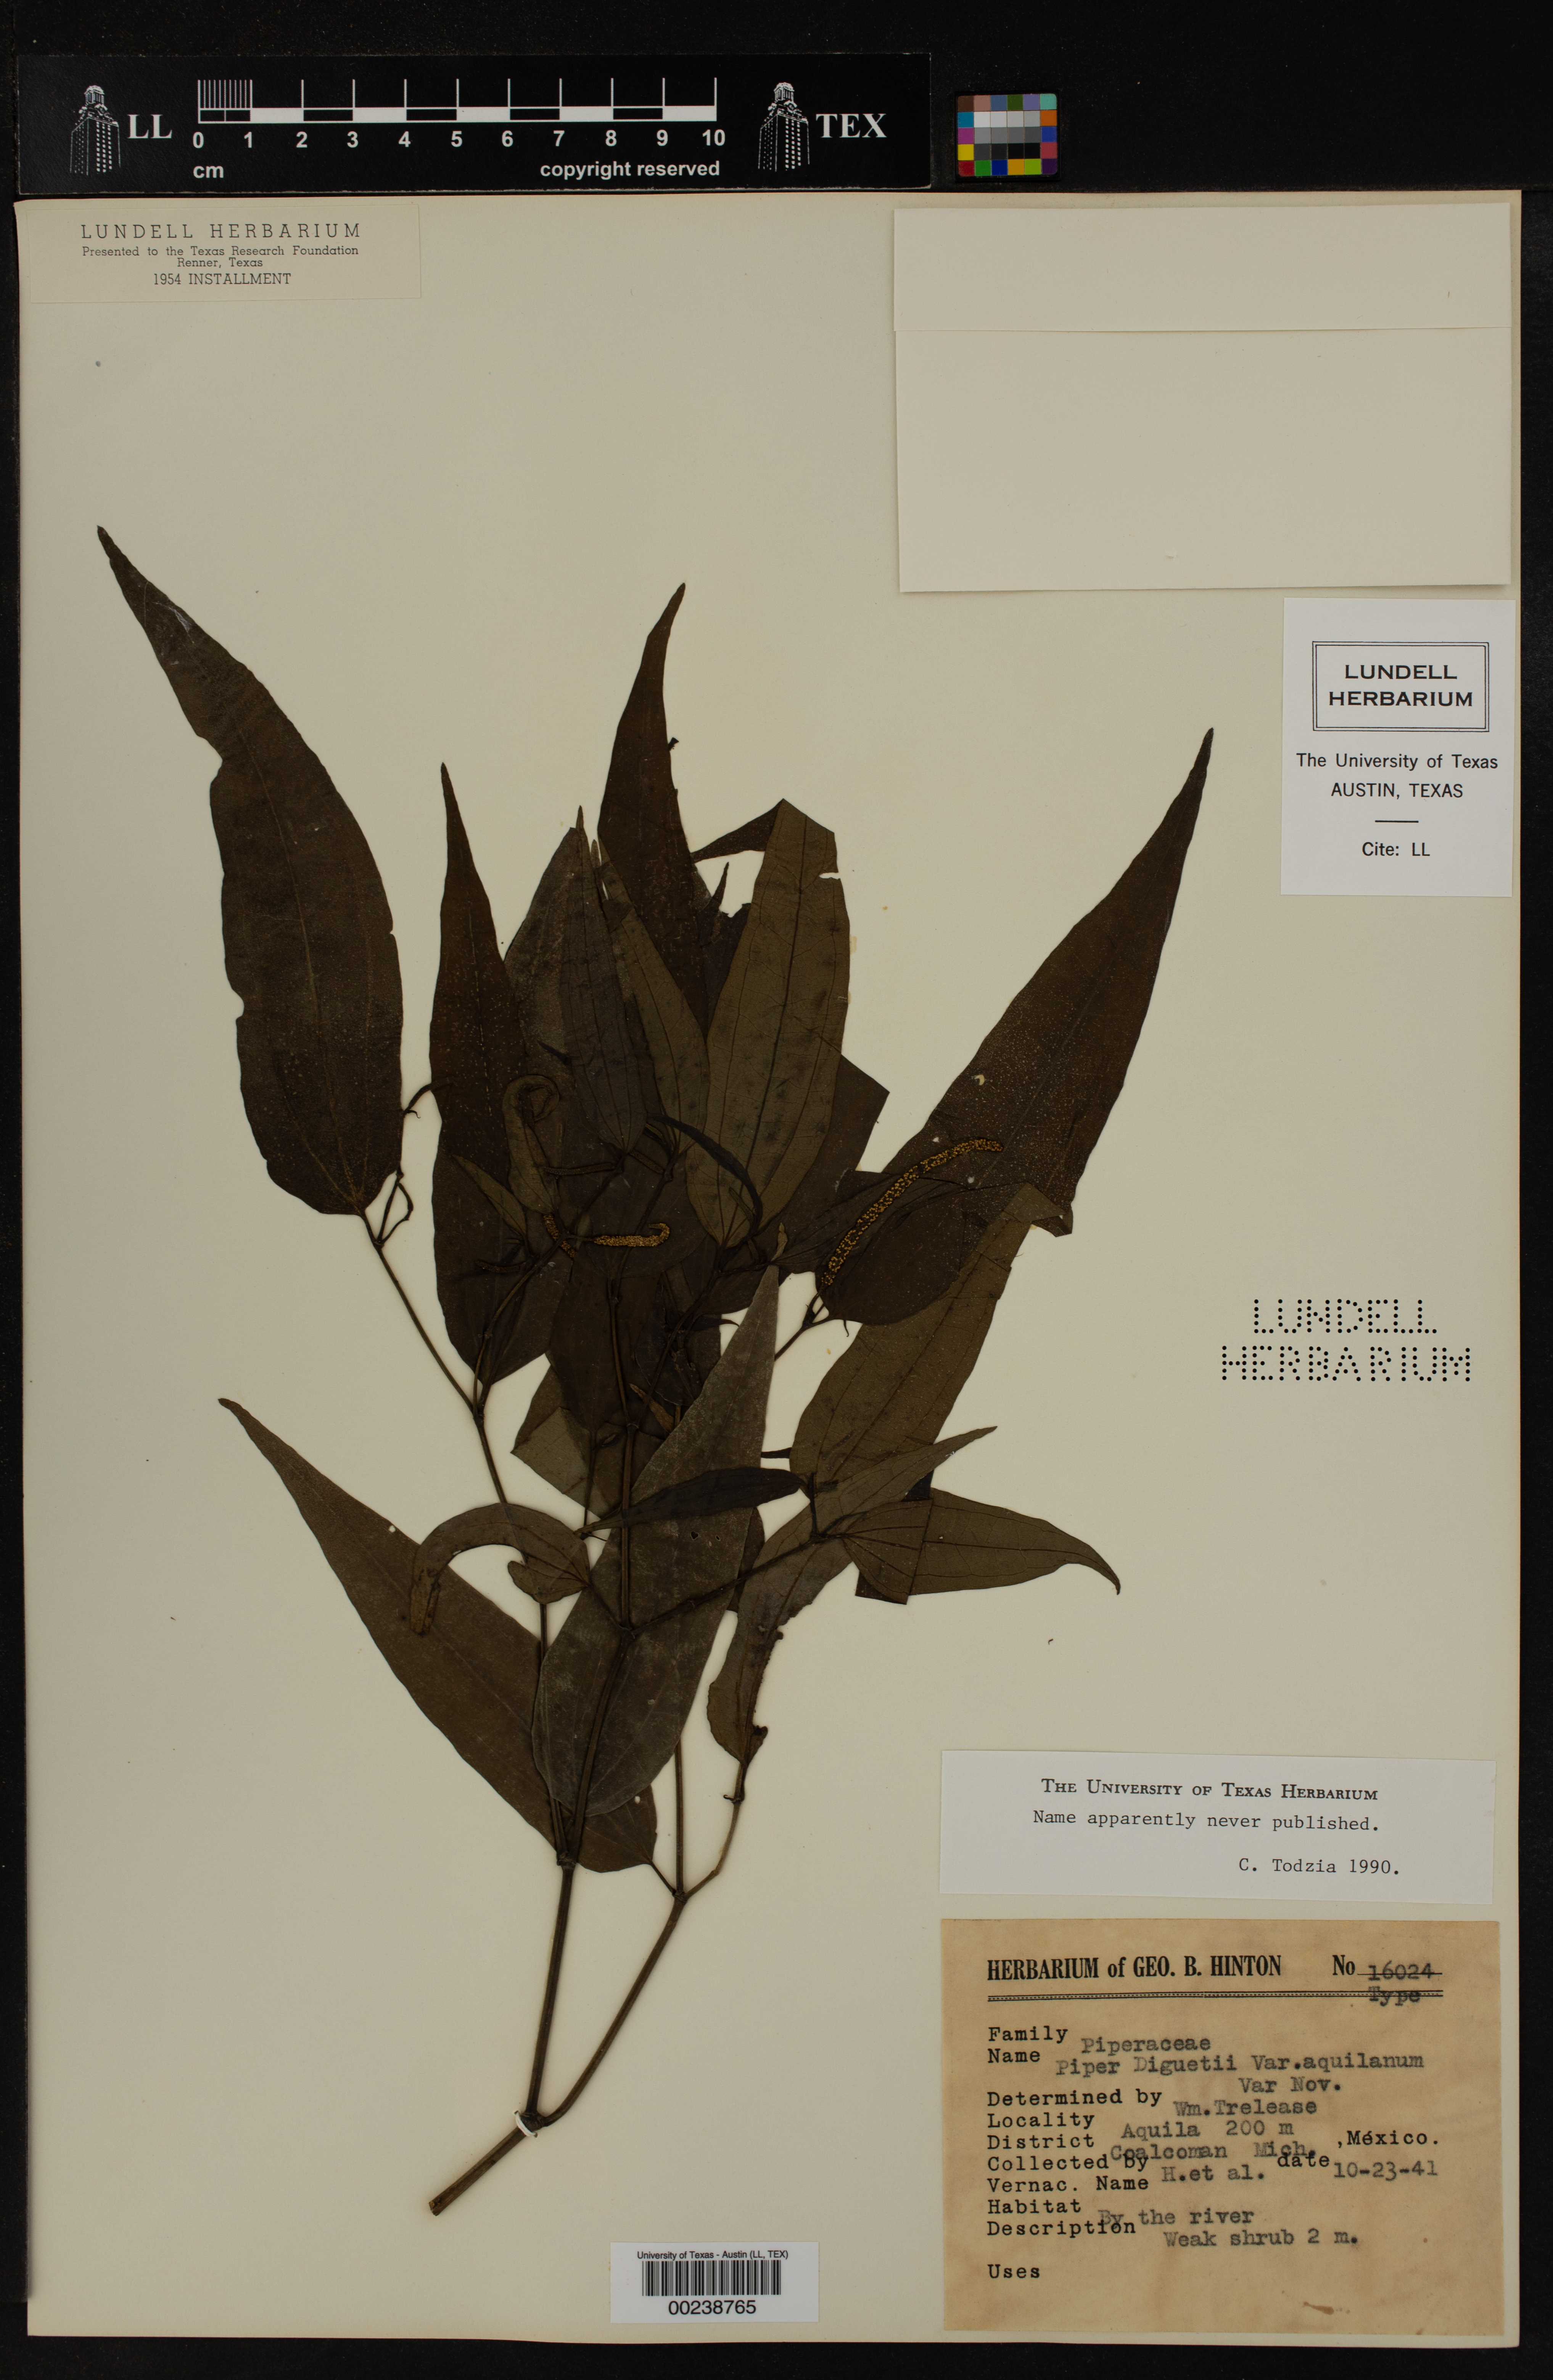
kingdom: Plantae
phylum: Tracheophyta
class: Magnoliopsida
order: Piperales
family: Piperaceae
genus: Piper
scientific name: Piper amalago
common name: Pepper-elder
